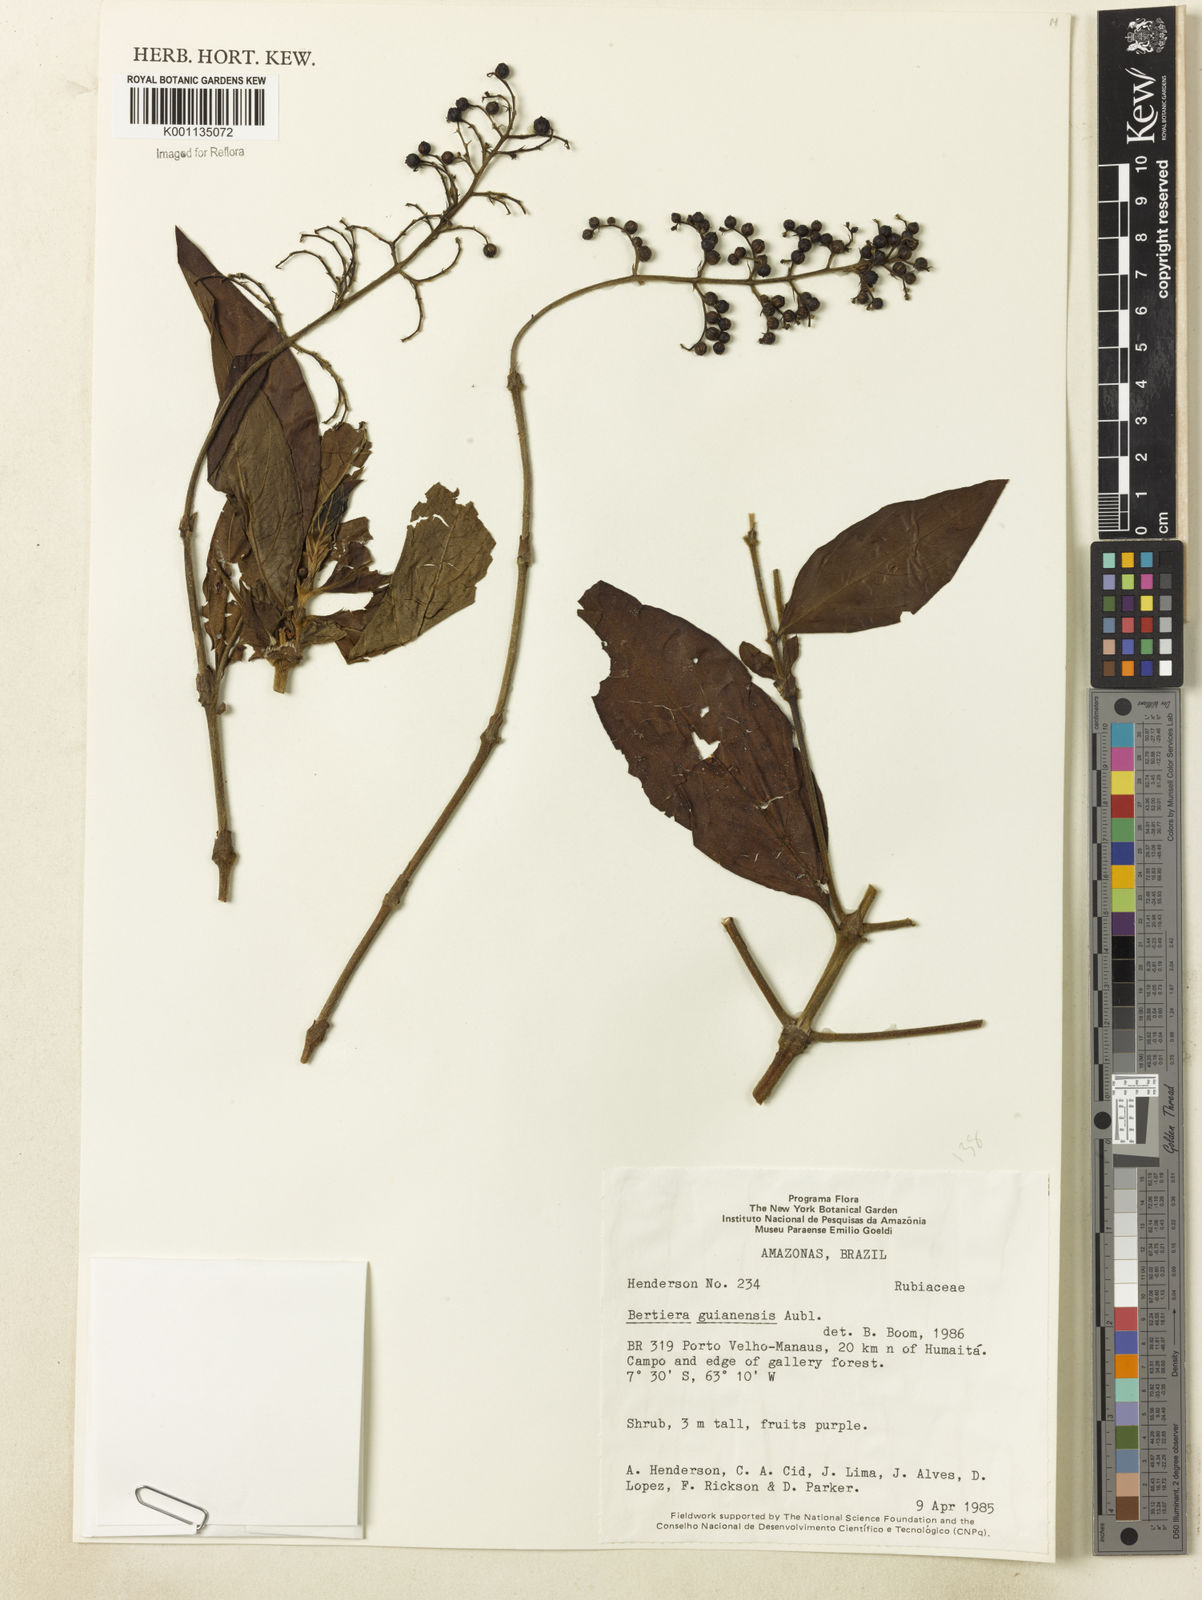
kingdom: Plantae
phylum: Tracheophyta
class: Magnoliopsida
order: Gentianales
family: Rubiaceae
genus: Bertiera
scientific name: Bertiera guianensis
